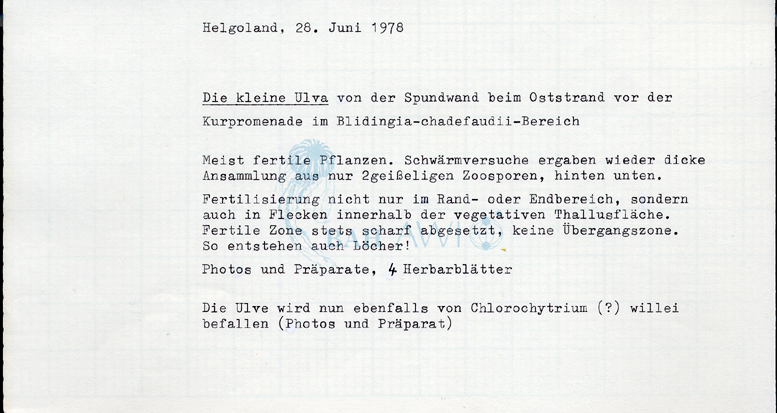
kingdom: Plantae
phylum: Chlorophyta
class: Ulvophyceae
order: Ulvales
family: Ulvaceae
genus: Ulva
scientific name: Ulva tenera
